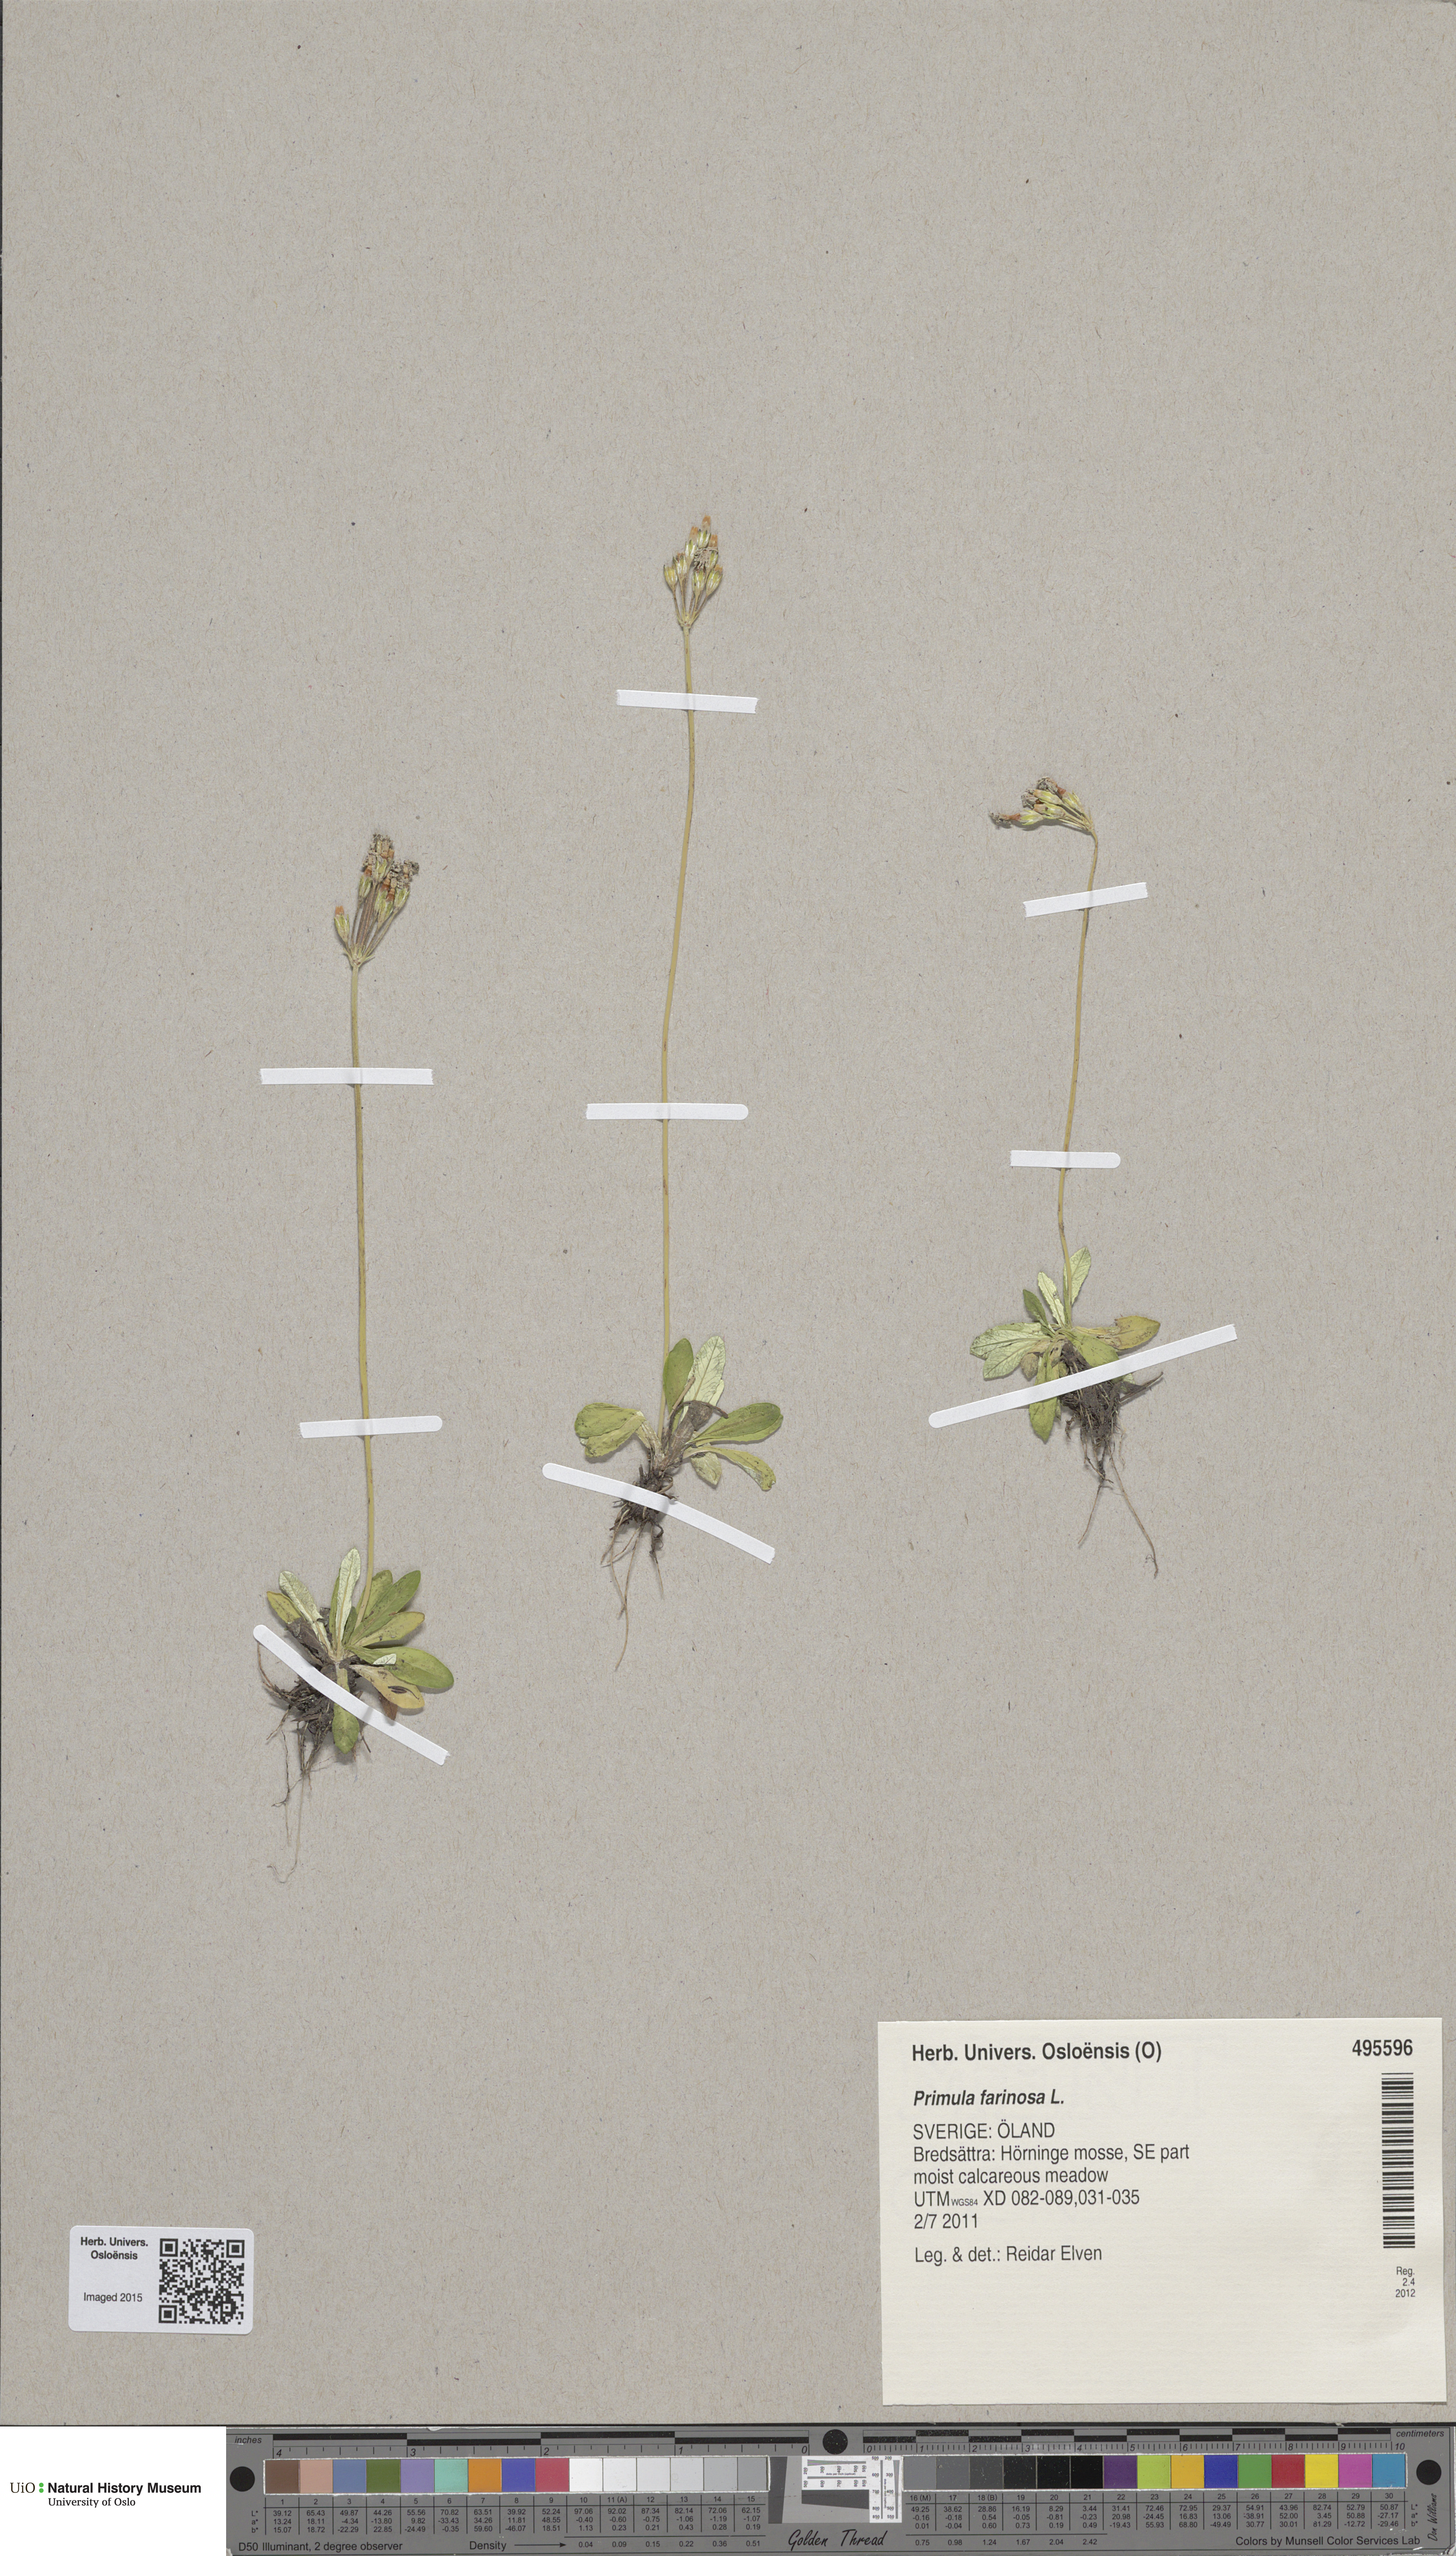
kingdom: Plantae
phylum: Tracheophyta
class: Magnoliopsida
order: Ericales
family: Primulaceae
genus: Primula
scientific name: Primula farinosa
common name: Bird's-eye primrose
